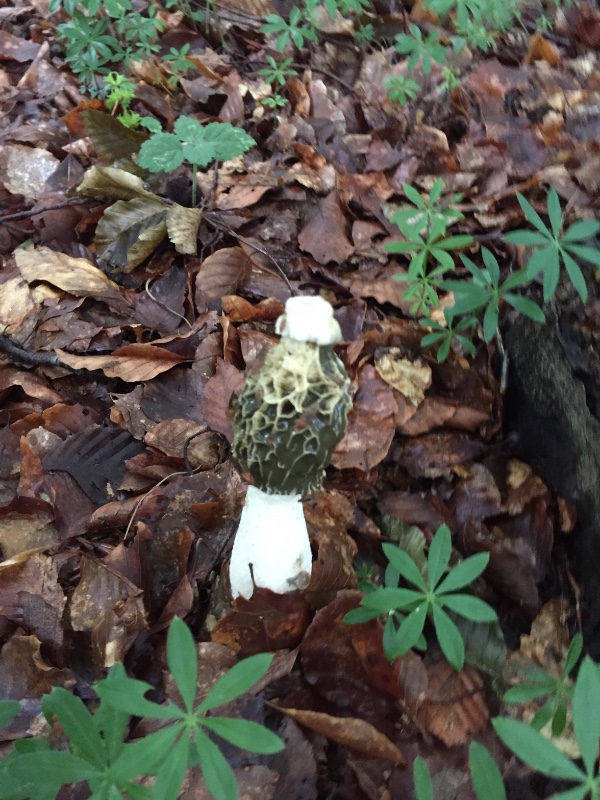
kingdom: Fungi
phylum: Basidiomycota
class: Agaricomycetes
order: Phallales
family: Phallaceae
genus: Phallus
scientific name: Phallus impudicus
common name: almindelig stinksvamp
